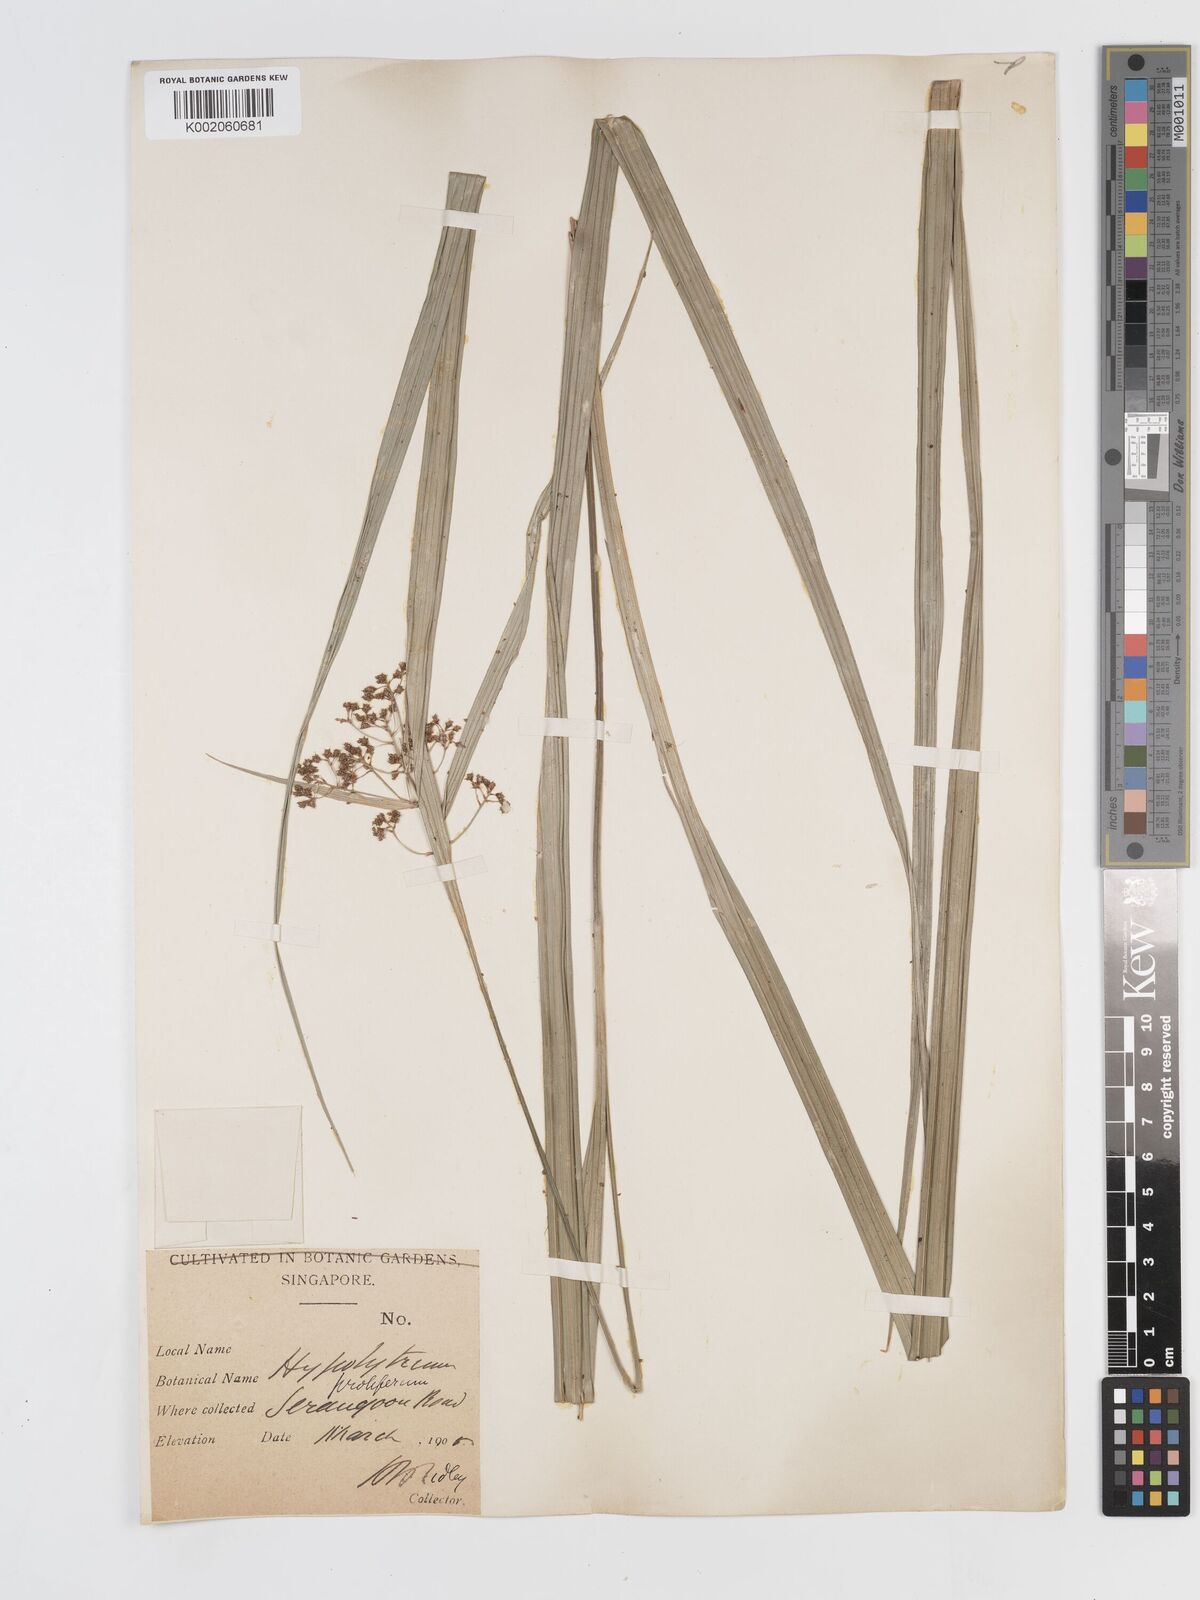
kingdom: Plantae
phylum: Tracheophyta
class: Liliopsida
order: Poales
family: Cyperaceae
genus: Hypolytrum
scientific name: Hypolytrum nemorum
